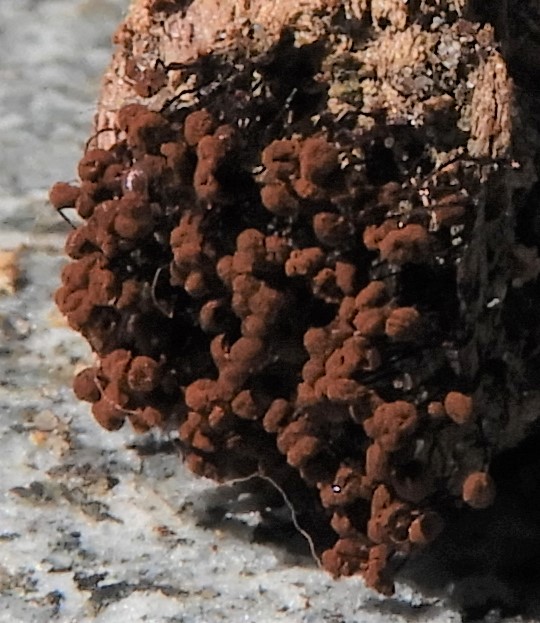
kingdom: Protozoa
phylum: Mycetozoa
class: Myxomycetes
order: Cribrariales
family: Cribrariaceae
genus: Cribraria
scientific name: Cribraria
